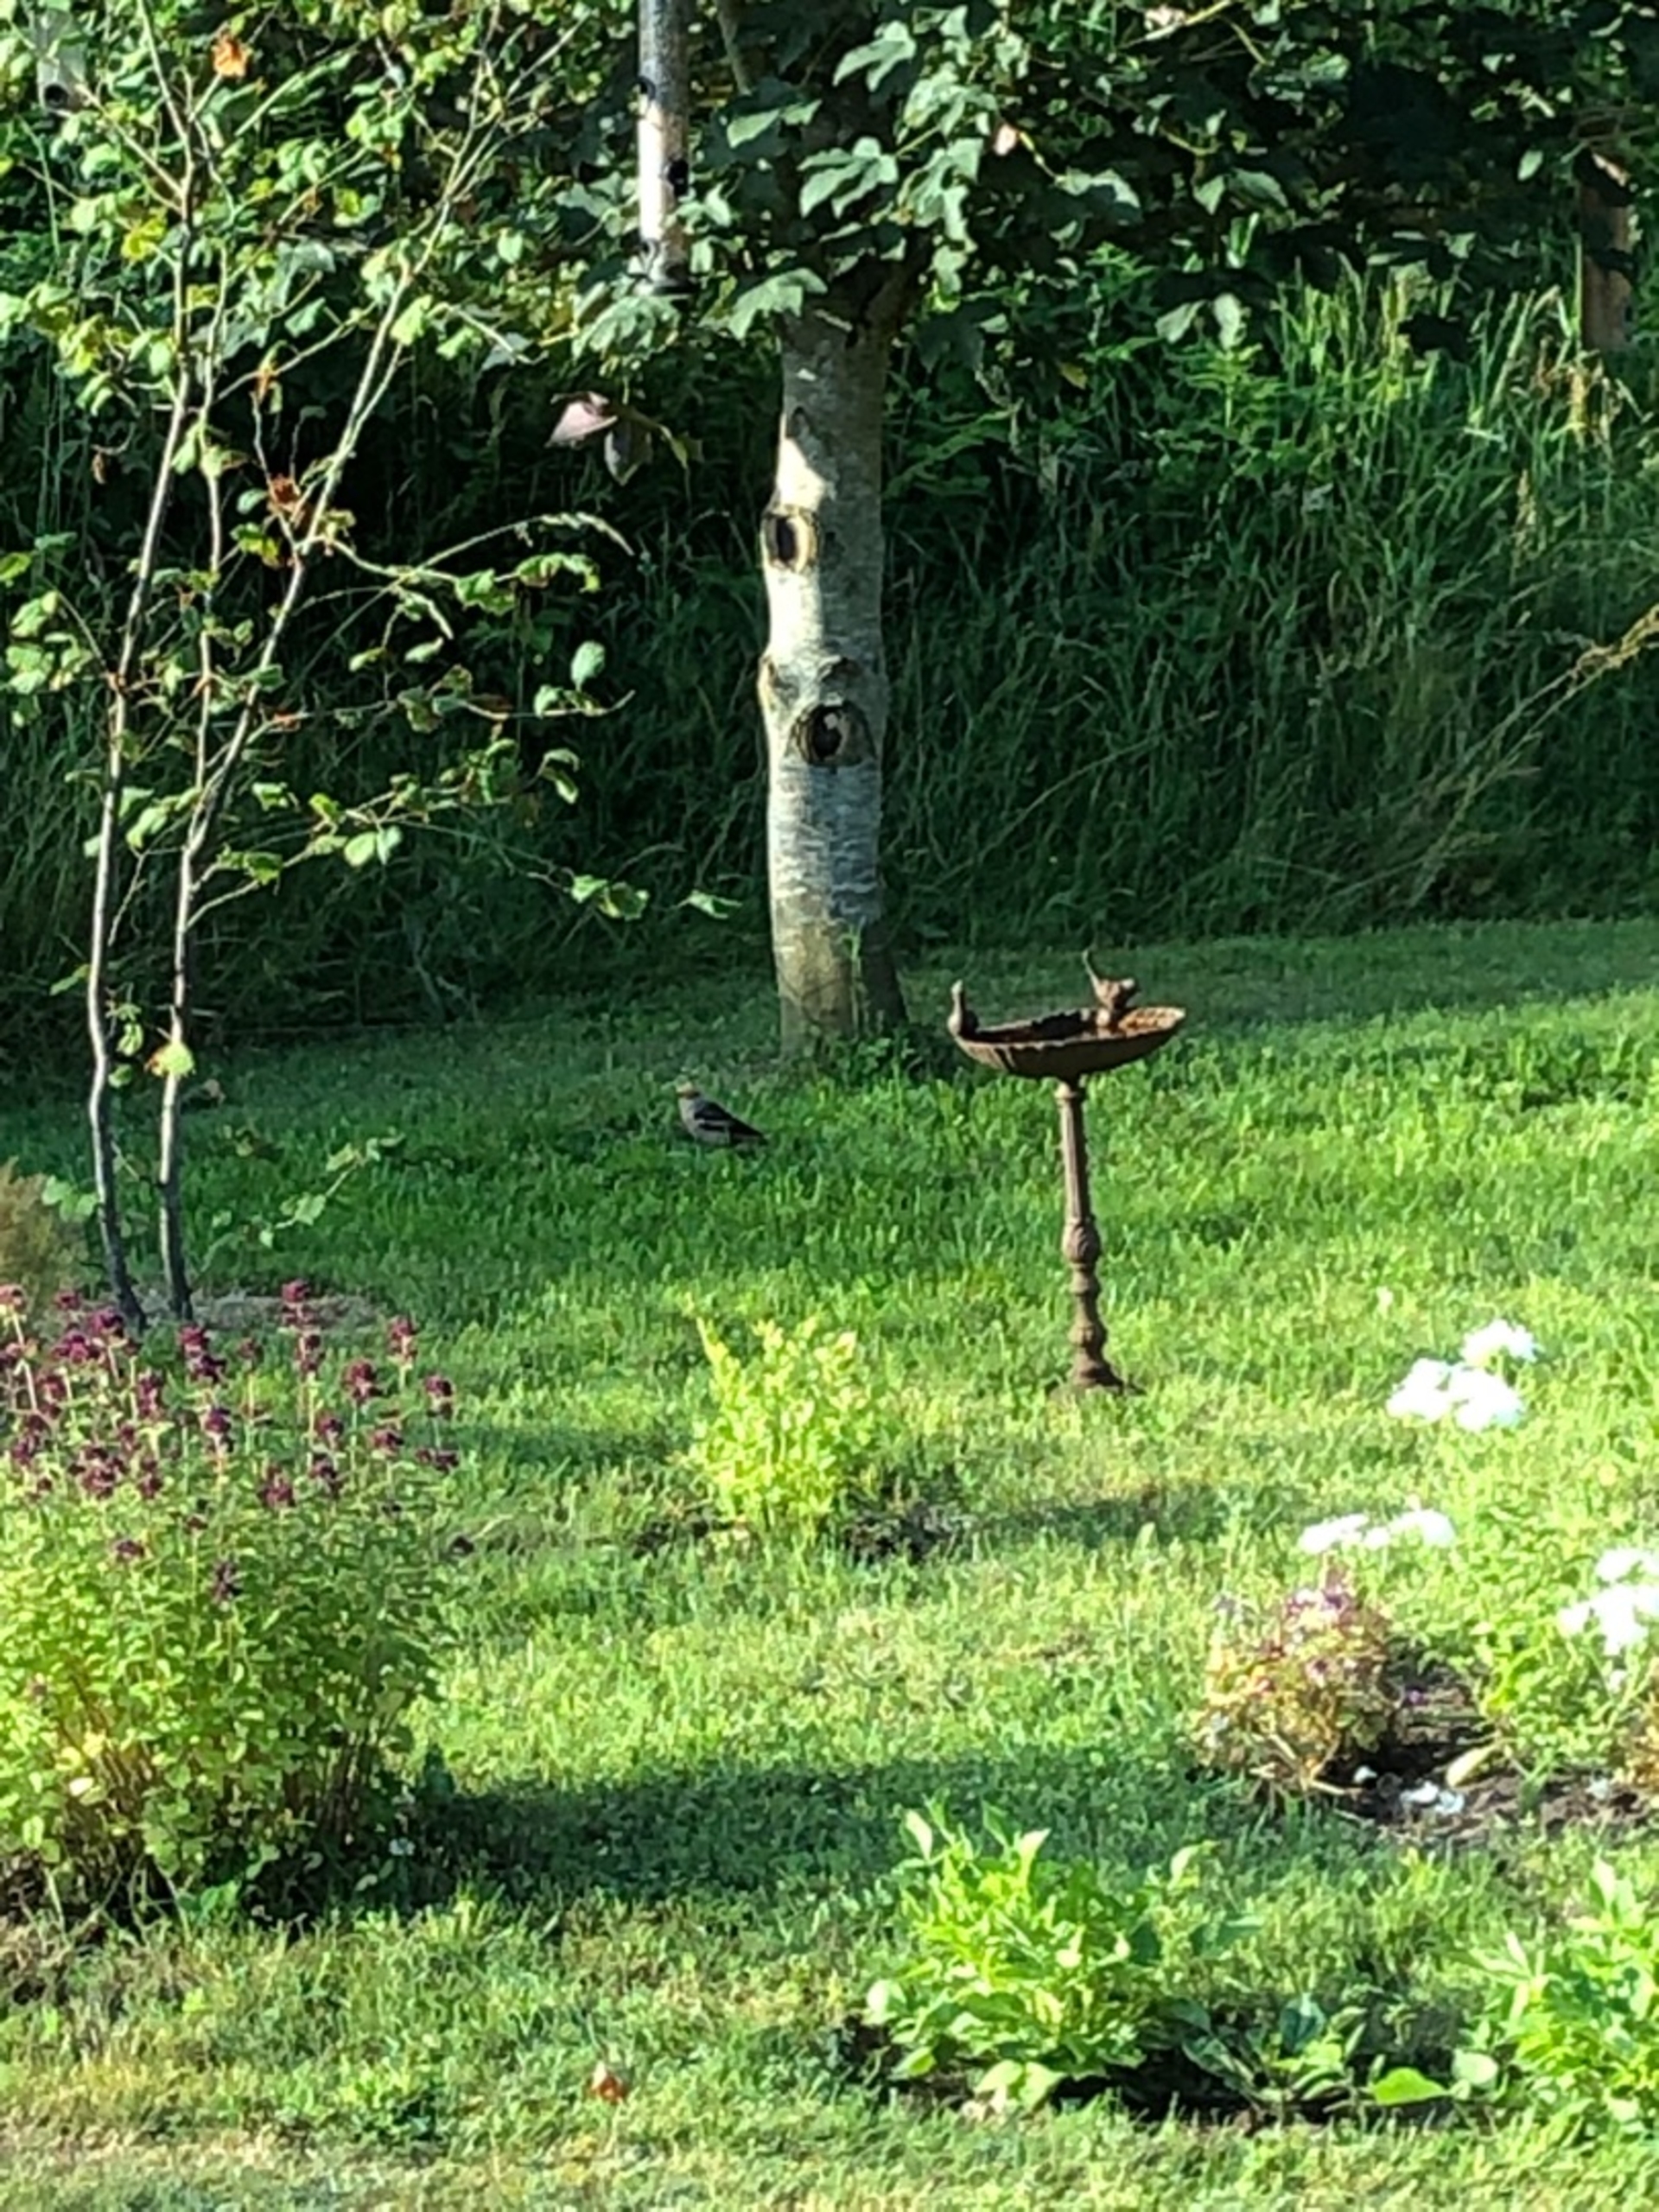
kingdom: Animalia
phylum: Chordata
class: Aves
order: Passeriformes
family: Fringillidae
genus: Coccothraustes
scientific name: Coccothraustes coccothraustes
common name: Kernebider
